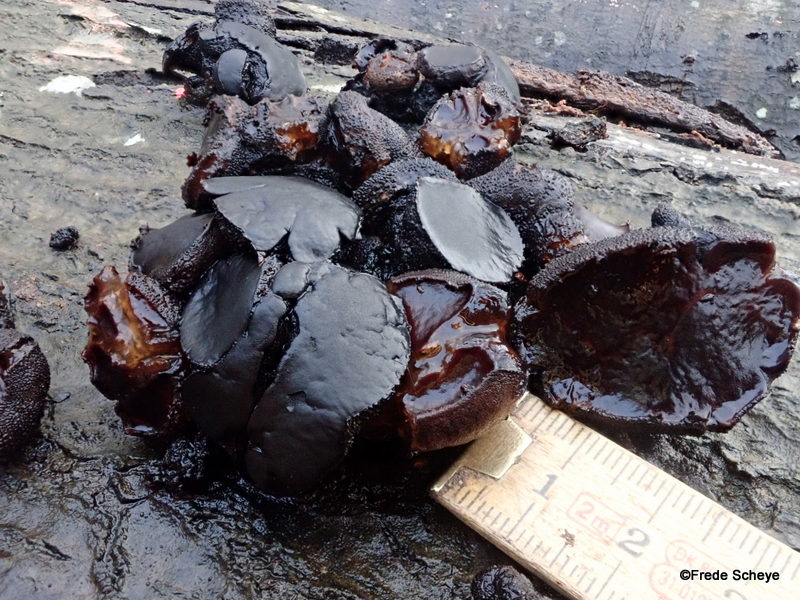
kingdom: Fungi
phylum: Ascomycota
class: Leotiomycetes
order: Phacidiales
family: Phacidiaceae
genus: Bulgaria
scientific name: Bulgaria inquinans
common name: afsmittende topsvamp
